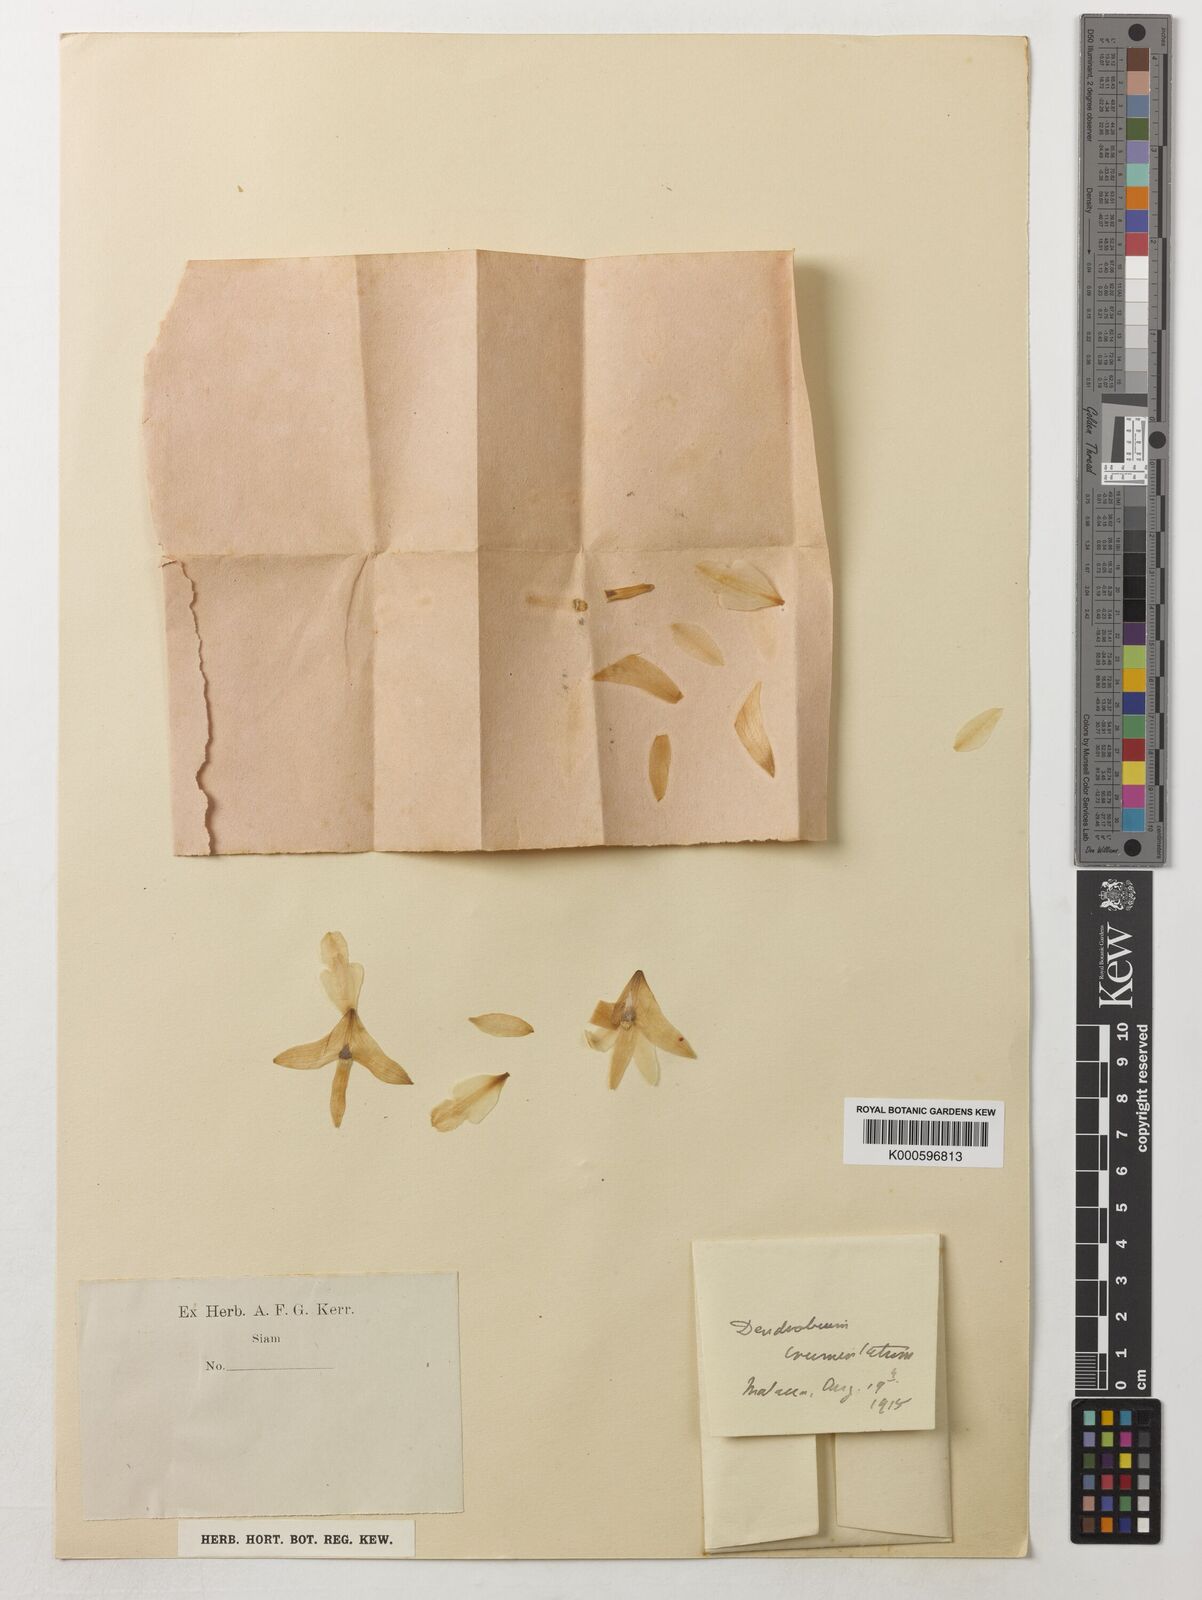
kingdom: Plantae
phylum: Tracheophyta
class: Liliopsida
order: Asparagales
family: Orchidaceae
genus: Dendrobium
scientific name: Dendrobium crumenatum
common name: Orchid
